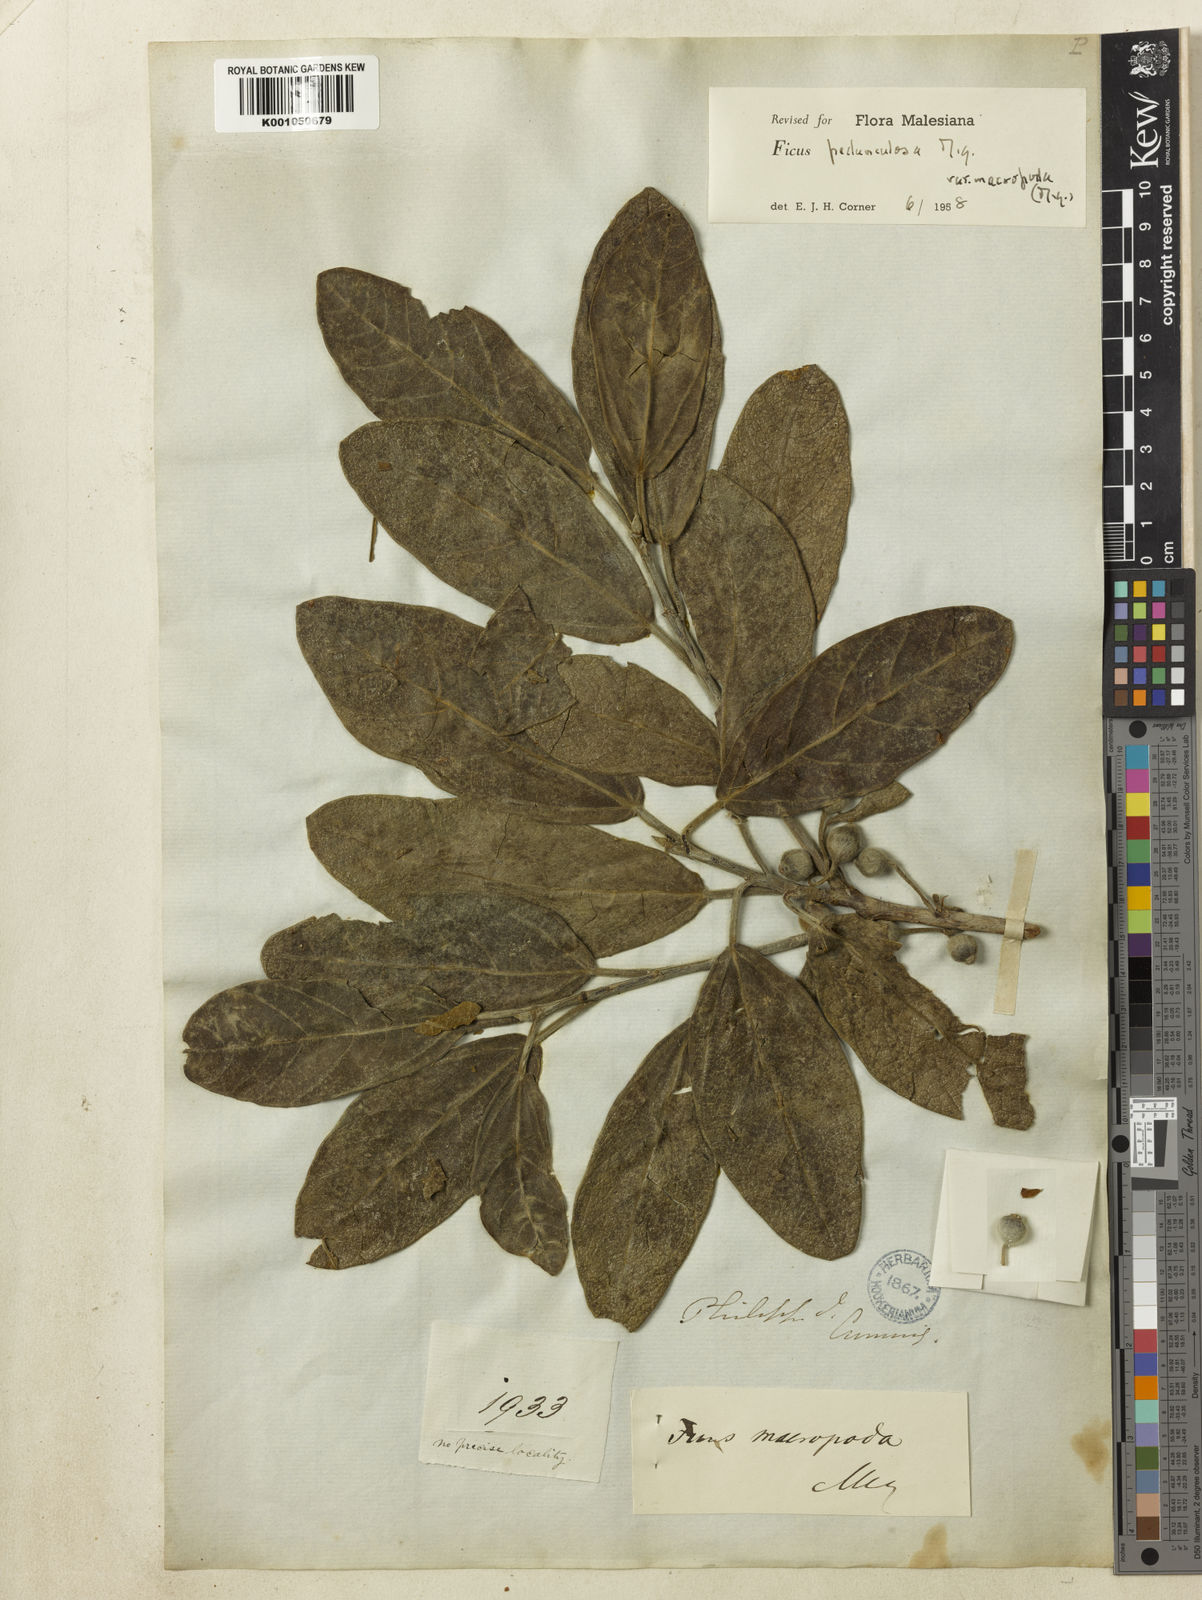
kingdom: Plantae
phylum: Tracheophyta
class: Magnoliopsida
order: Rosales
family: Moraceae
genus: Ficus
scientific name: Ficus pedunculosa
